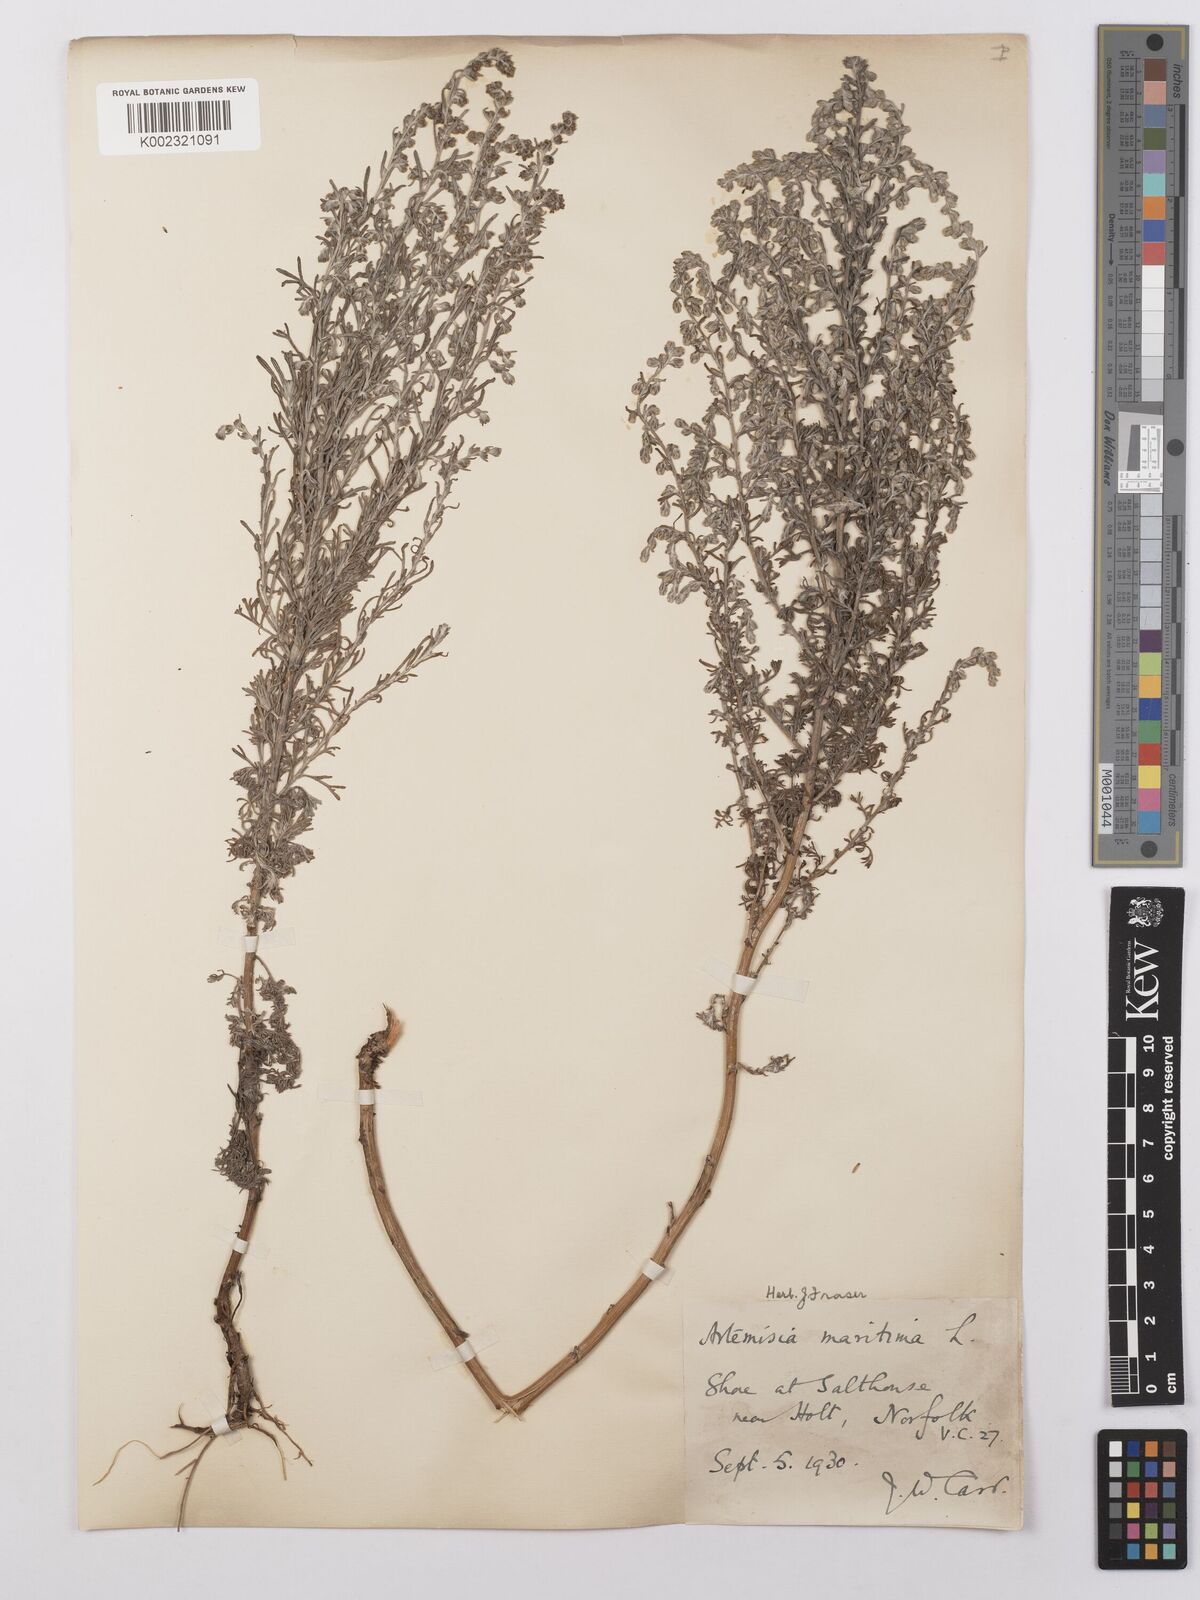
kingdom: Plantae
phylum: Tracheophyta
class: Magnoliopsida
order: Asterales
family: Asteraceae
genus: Artemisia
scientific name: Artemisia maritima
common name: Wormseed
